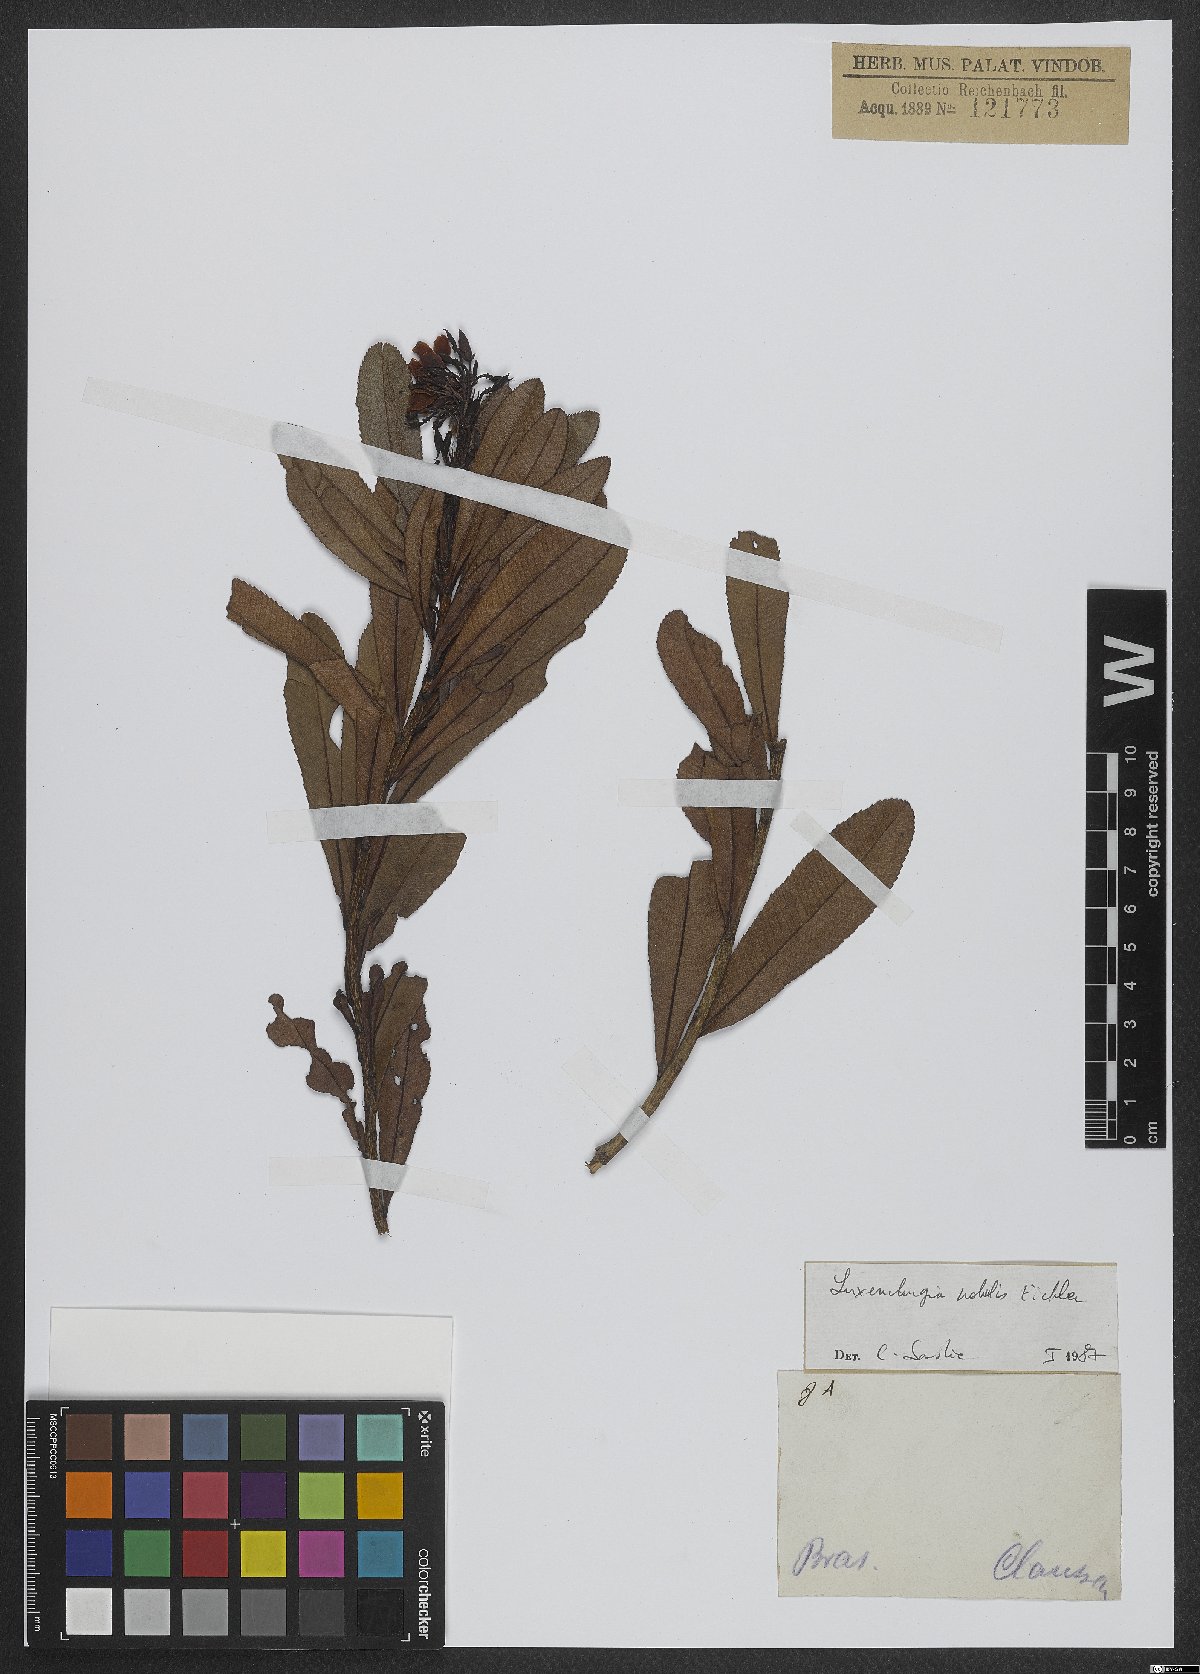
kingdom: Plantae
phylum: Tracheophyta
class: Magnoliopsida
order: Malpighiales
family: Ochnaceae
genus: Luxemburgia
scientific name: Luxemburgia nobilis
